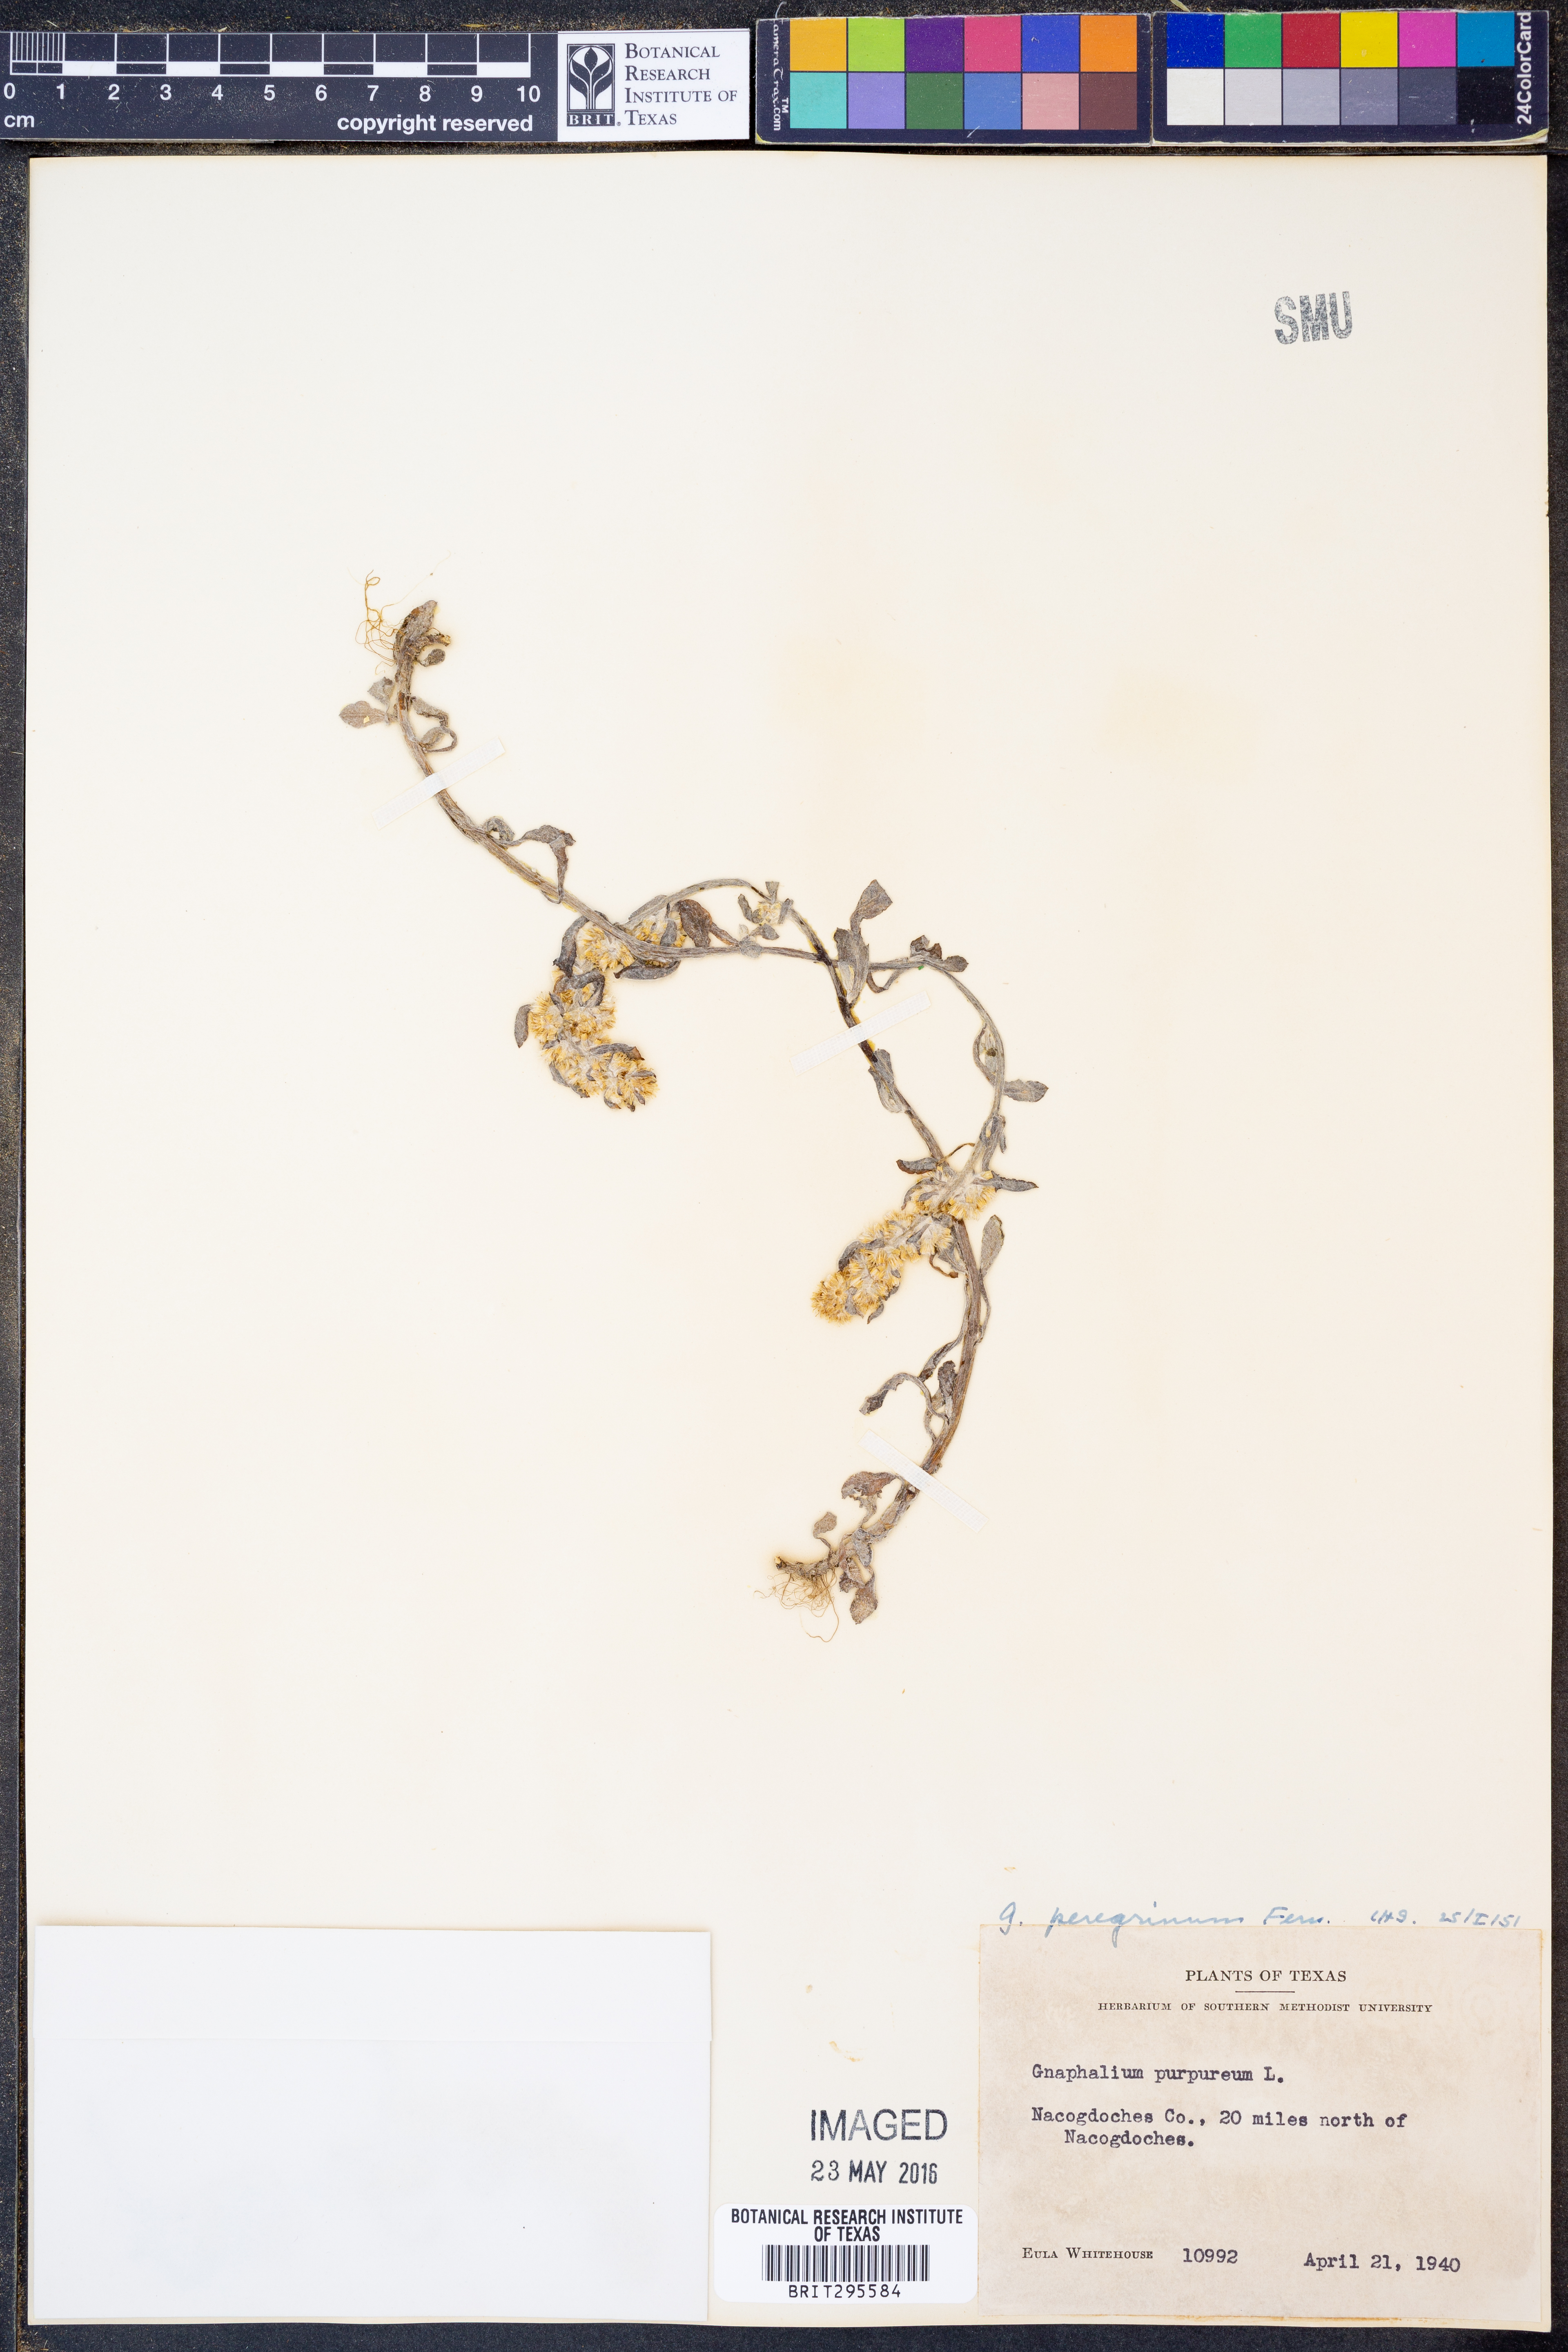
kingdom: Plantae
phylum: Tracheophyta
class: Magnoliopsida
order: Asterales
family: Asteraceae
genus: Gamochaeta
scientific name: Gamochaeta pensylvanica
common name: Pennsylvania everlasting
